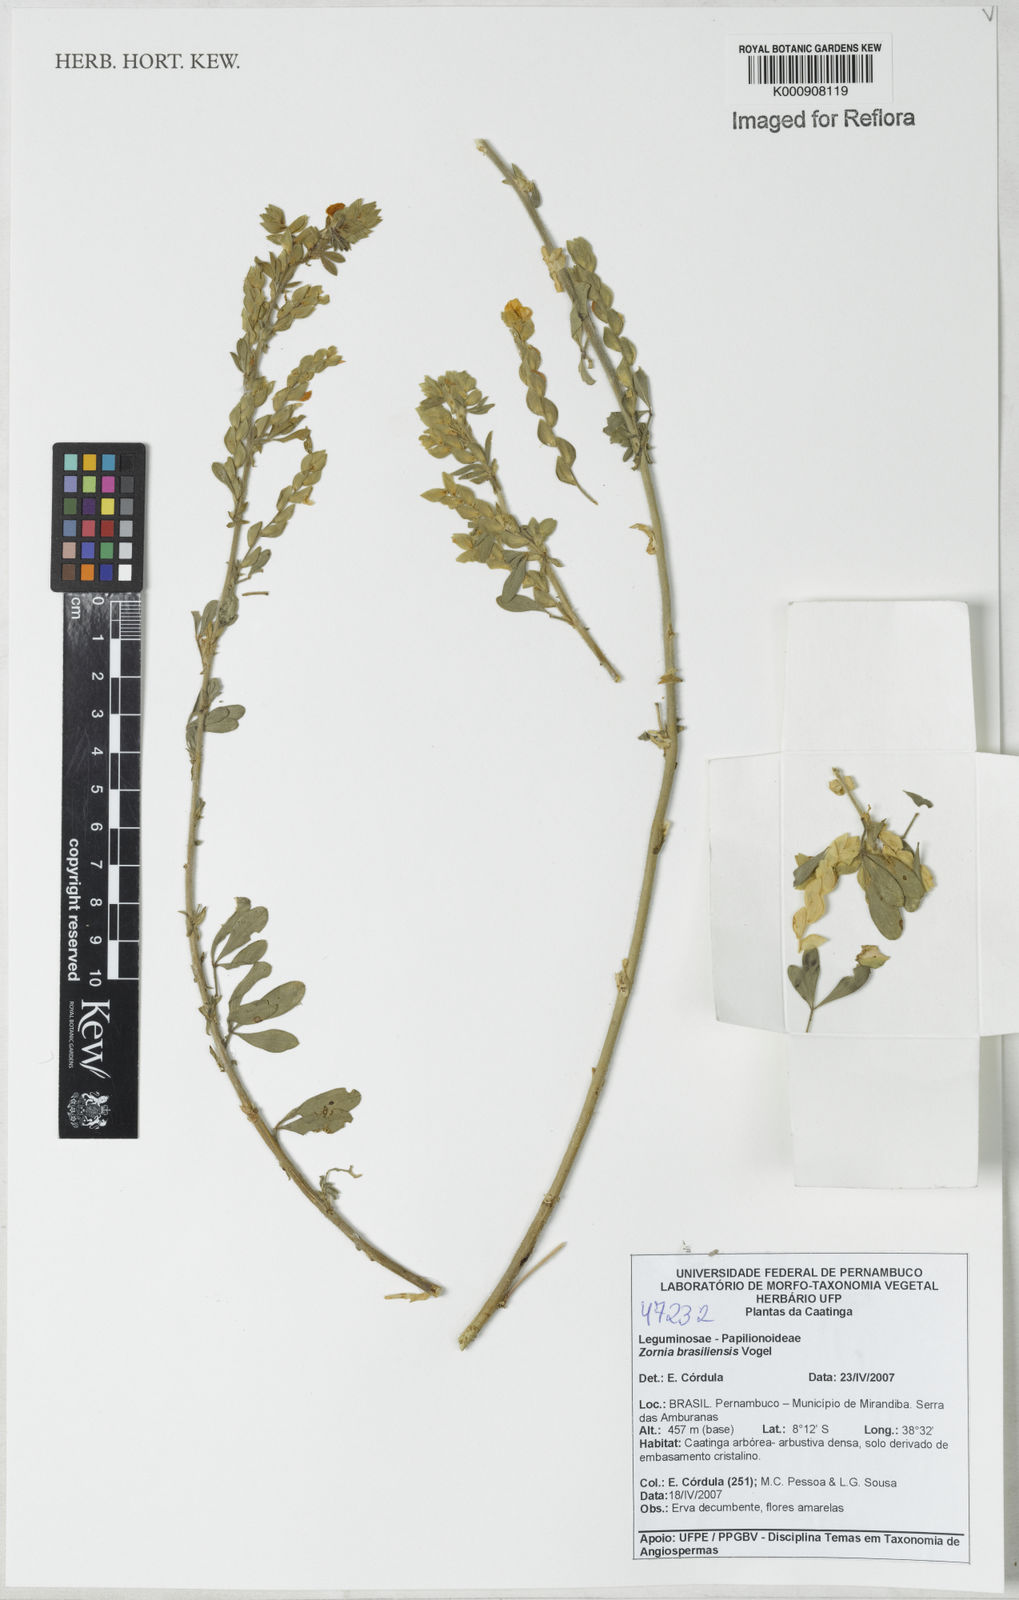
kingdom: Plantae
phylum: Tracheophyta
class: Magnoliopsida
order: Fabales
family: Fabaceae
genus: Zornia
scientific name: Zornia brasiliensis
